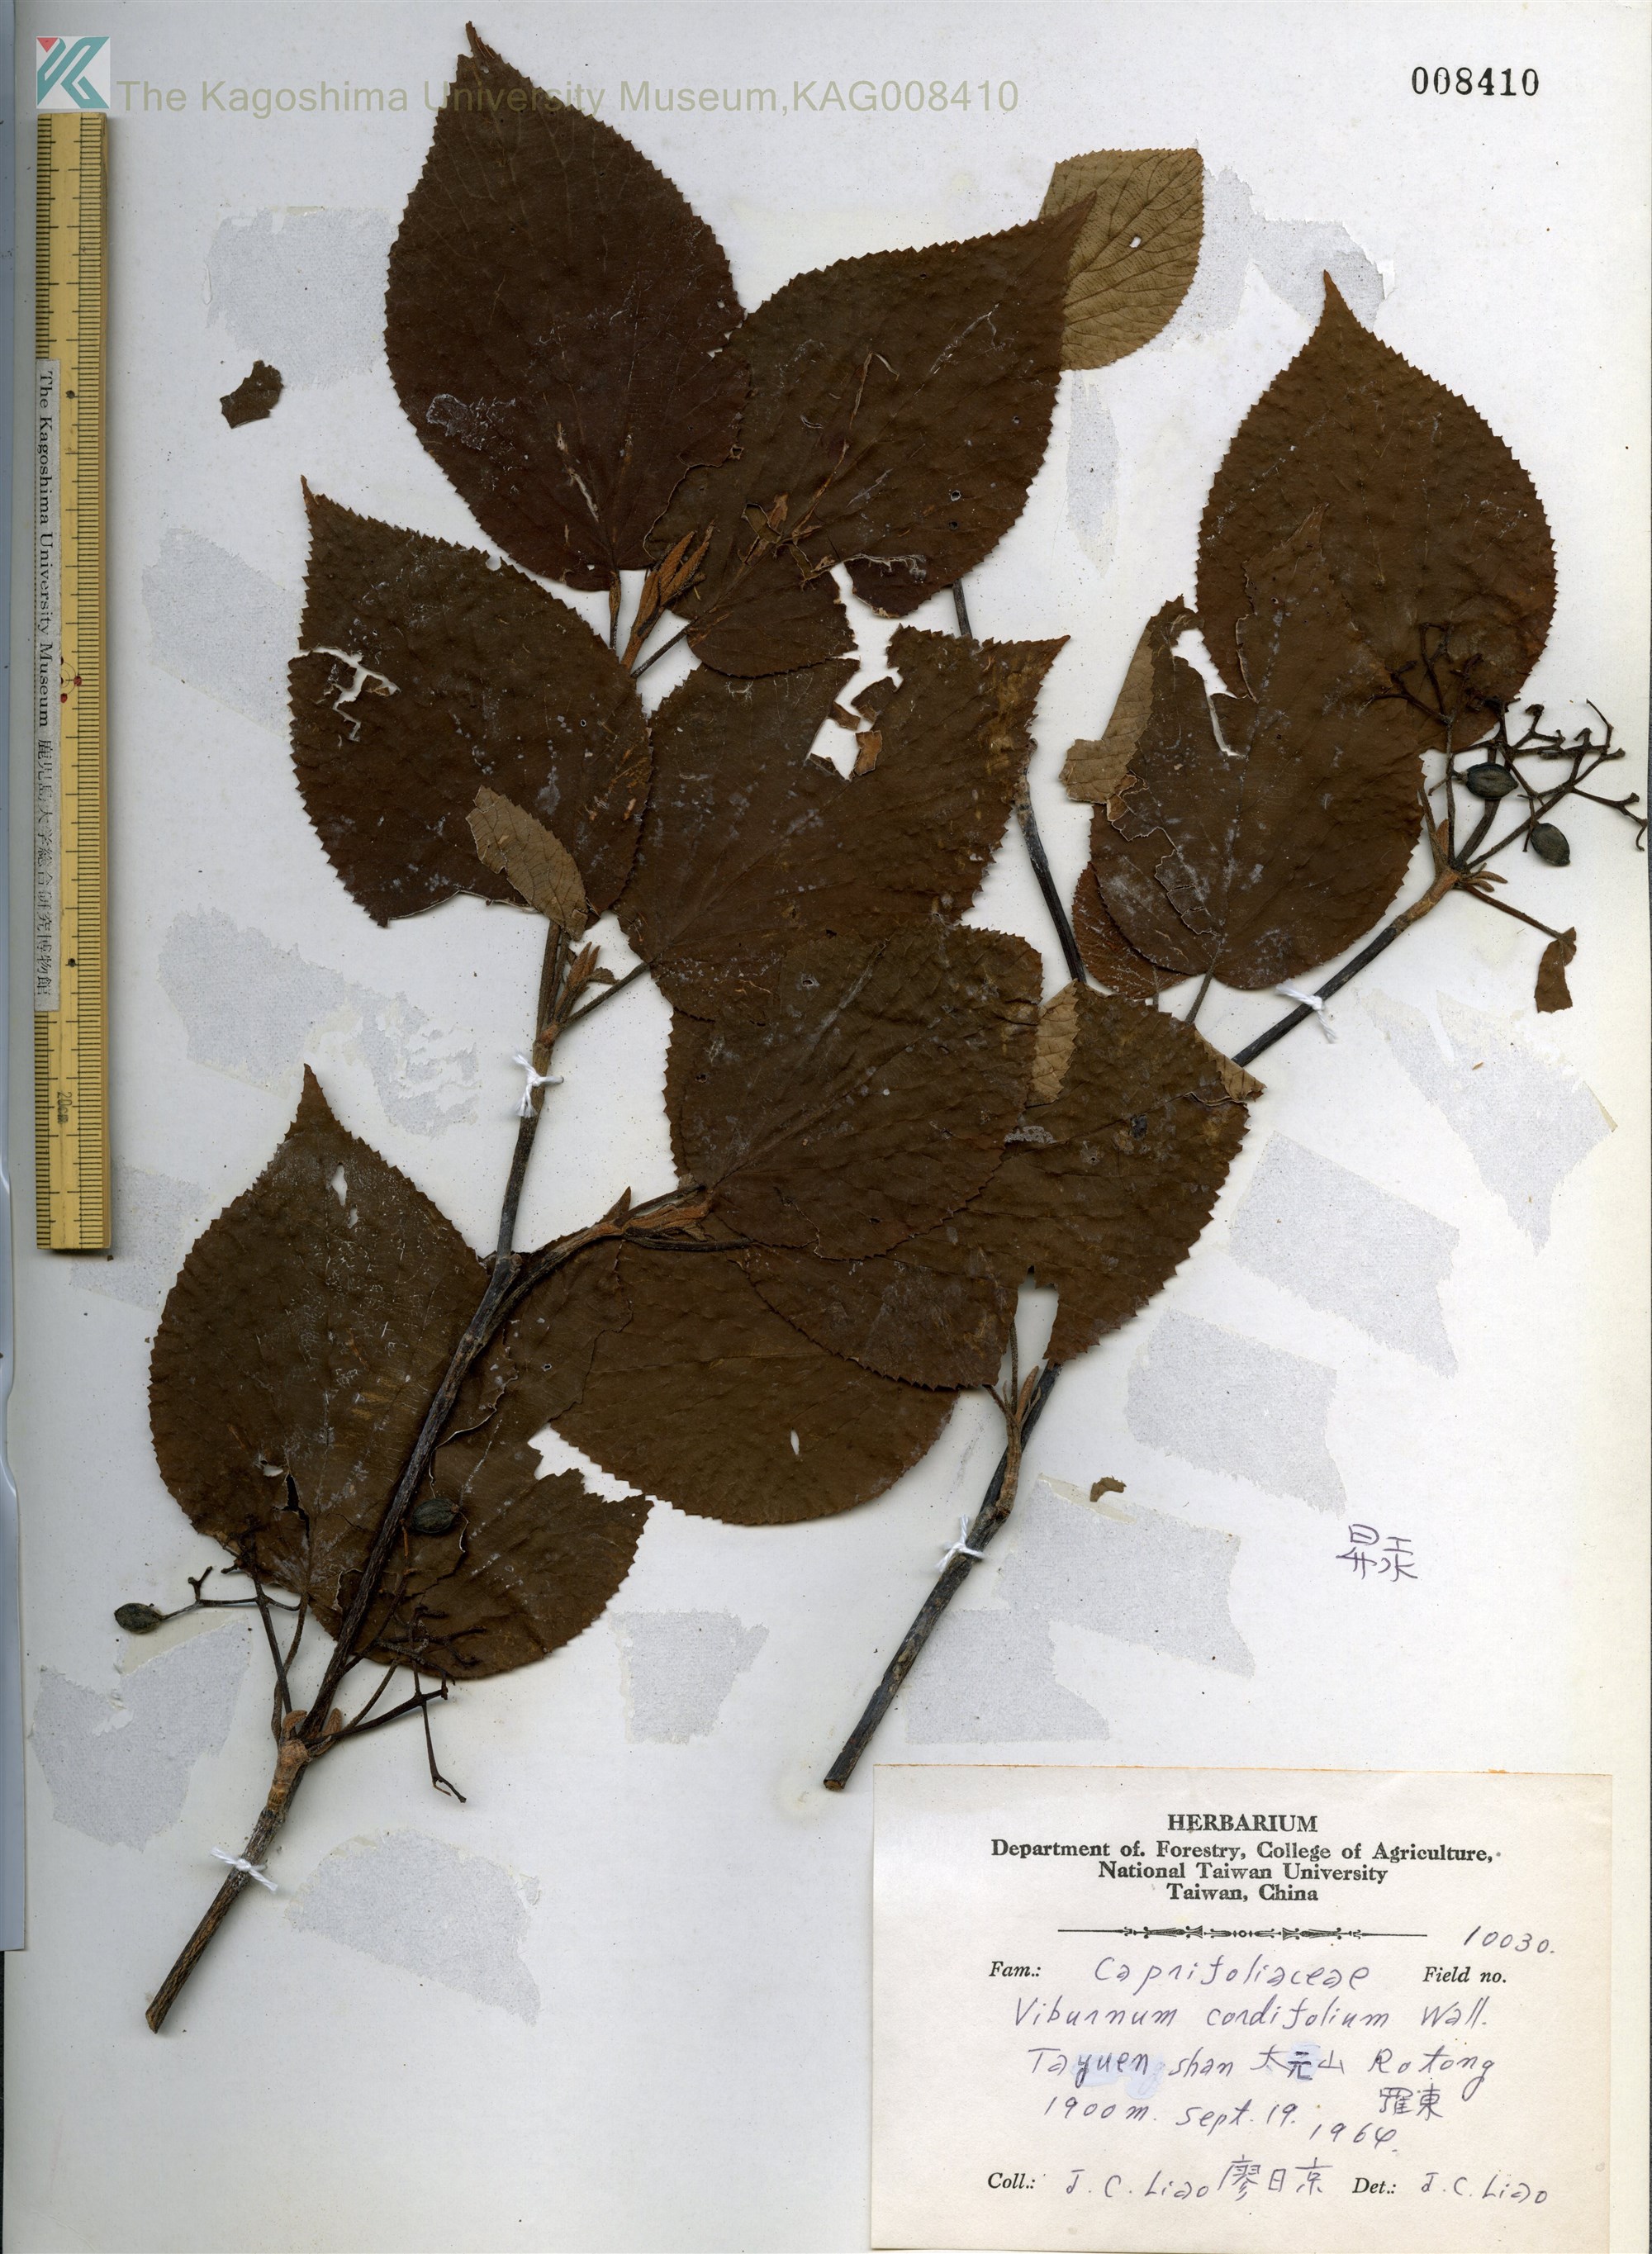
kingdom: Plantae
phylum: Tracheophyta
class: Magnoliopsida
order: Dipsacales
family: Viburnaceae
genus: Viburnum
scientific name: Viburnum nervosum
